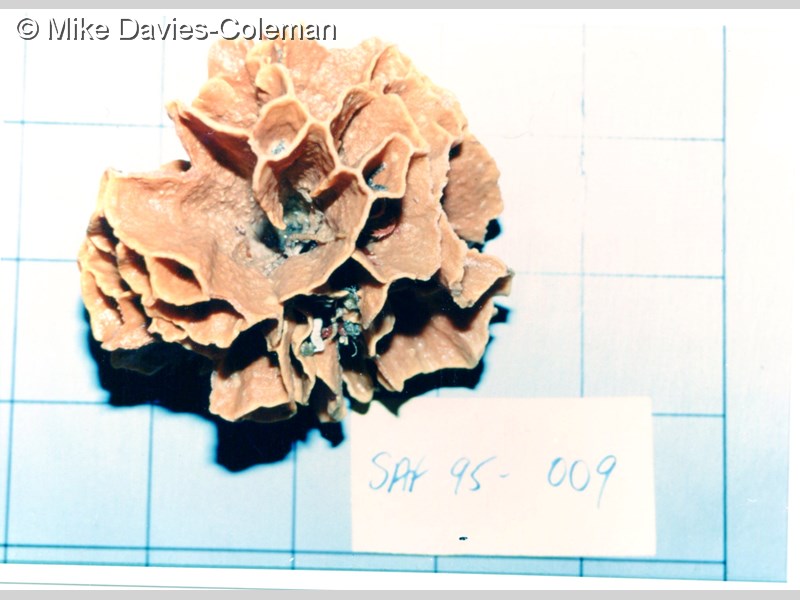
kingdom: Animalia
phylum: Bryozoa
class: Gymnolaemata
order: Cheilostomatida
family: Phidoloporidae
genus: Reteporella
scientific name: Reteporella
